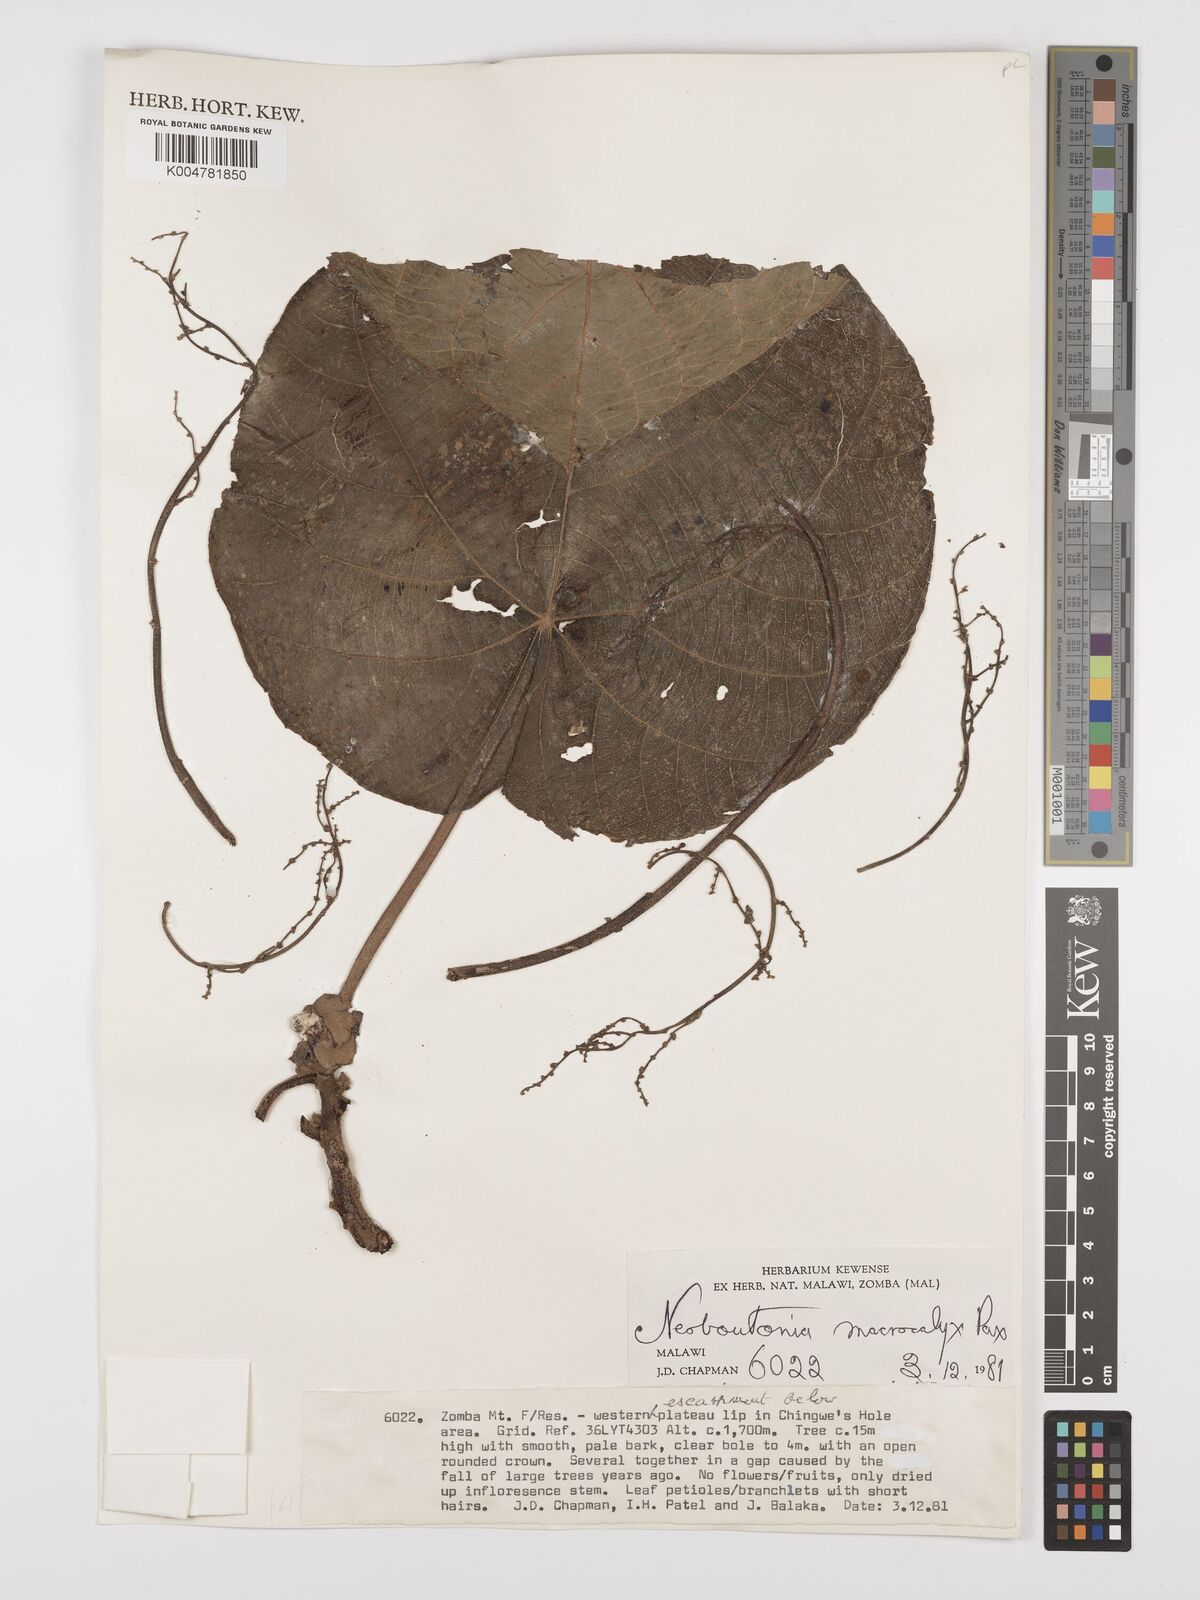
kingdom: Plantae
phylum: Tracheophyta
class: Magnoliopsida
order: Malpighiales
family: Euphorbiaceae
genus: Neoboutonia
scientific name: Neoboutonia macrocalyx
